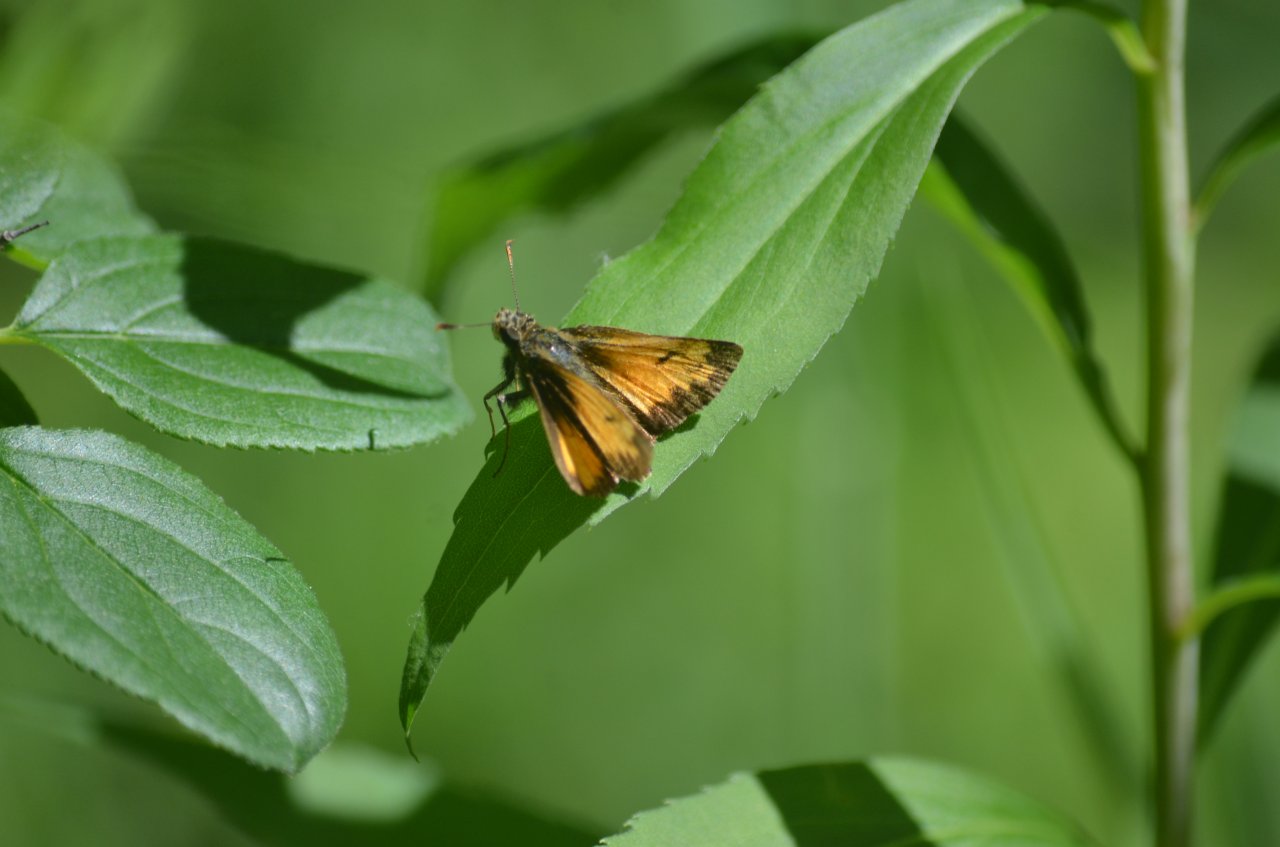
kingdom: Animalia
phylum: Arthropoda
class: Insecta
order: Lepidoptera
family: Hesperiidae
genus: Lon
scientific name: Lon hobomok
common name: Hobomok Skipper
